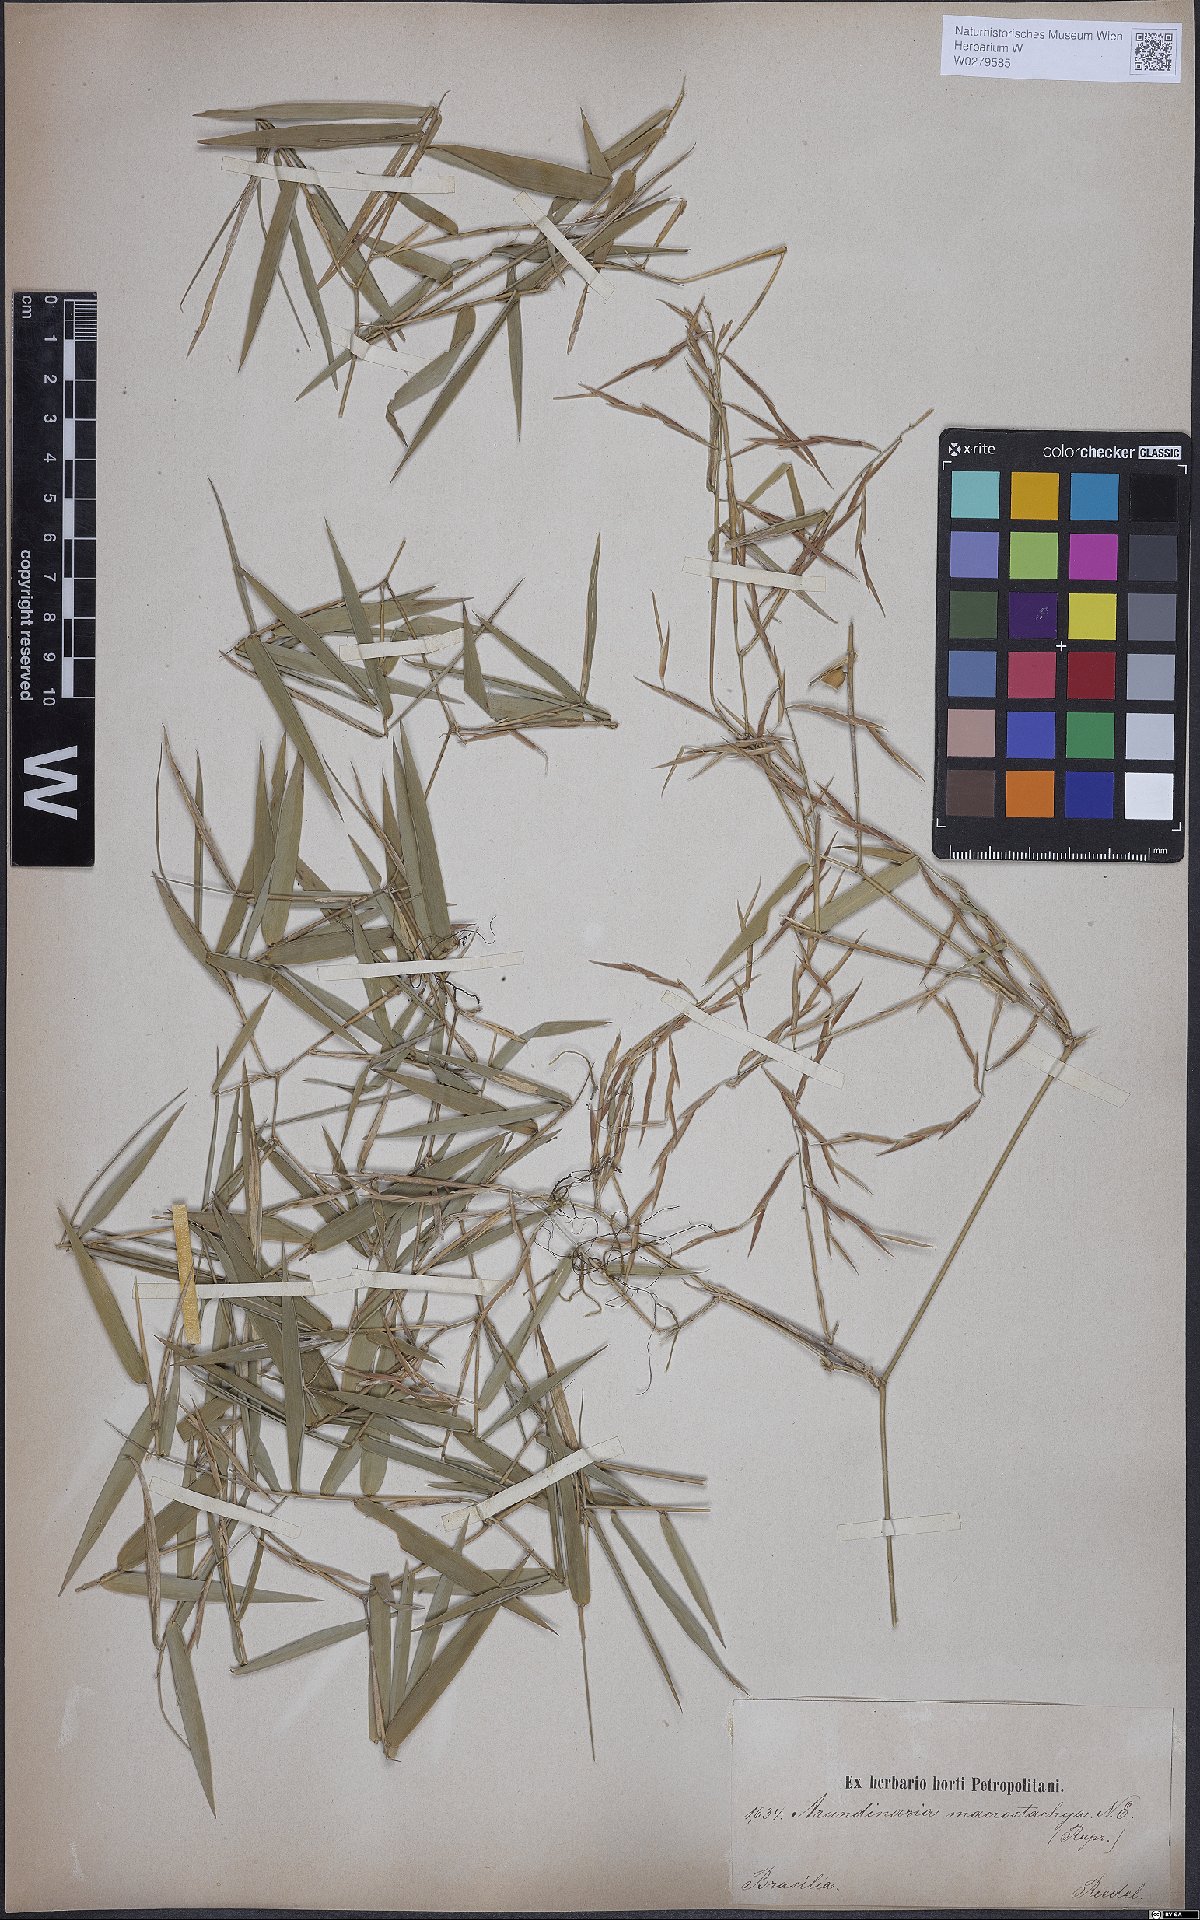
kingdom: Plantae
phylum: Tracheophyta
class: Liliopsida
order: Poales
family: Poaceae
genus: Colanthelia
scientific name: Colanthelia macrostachya
